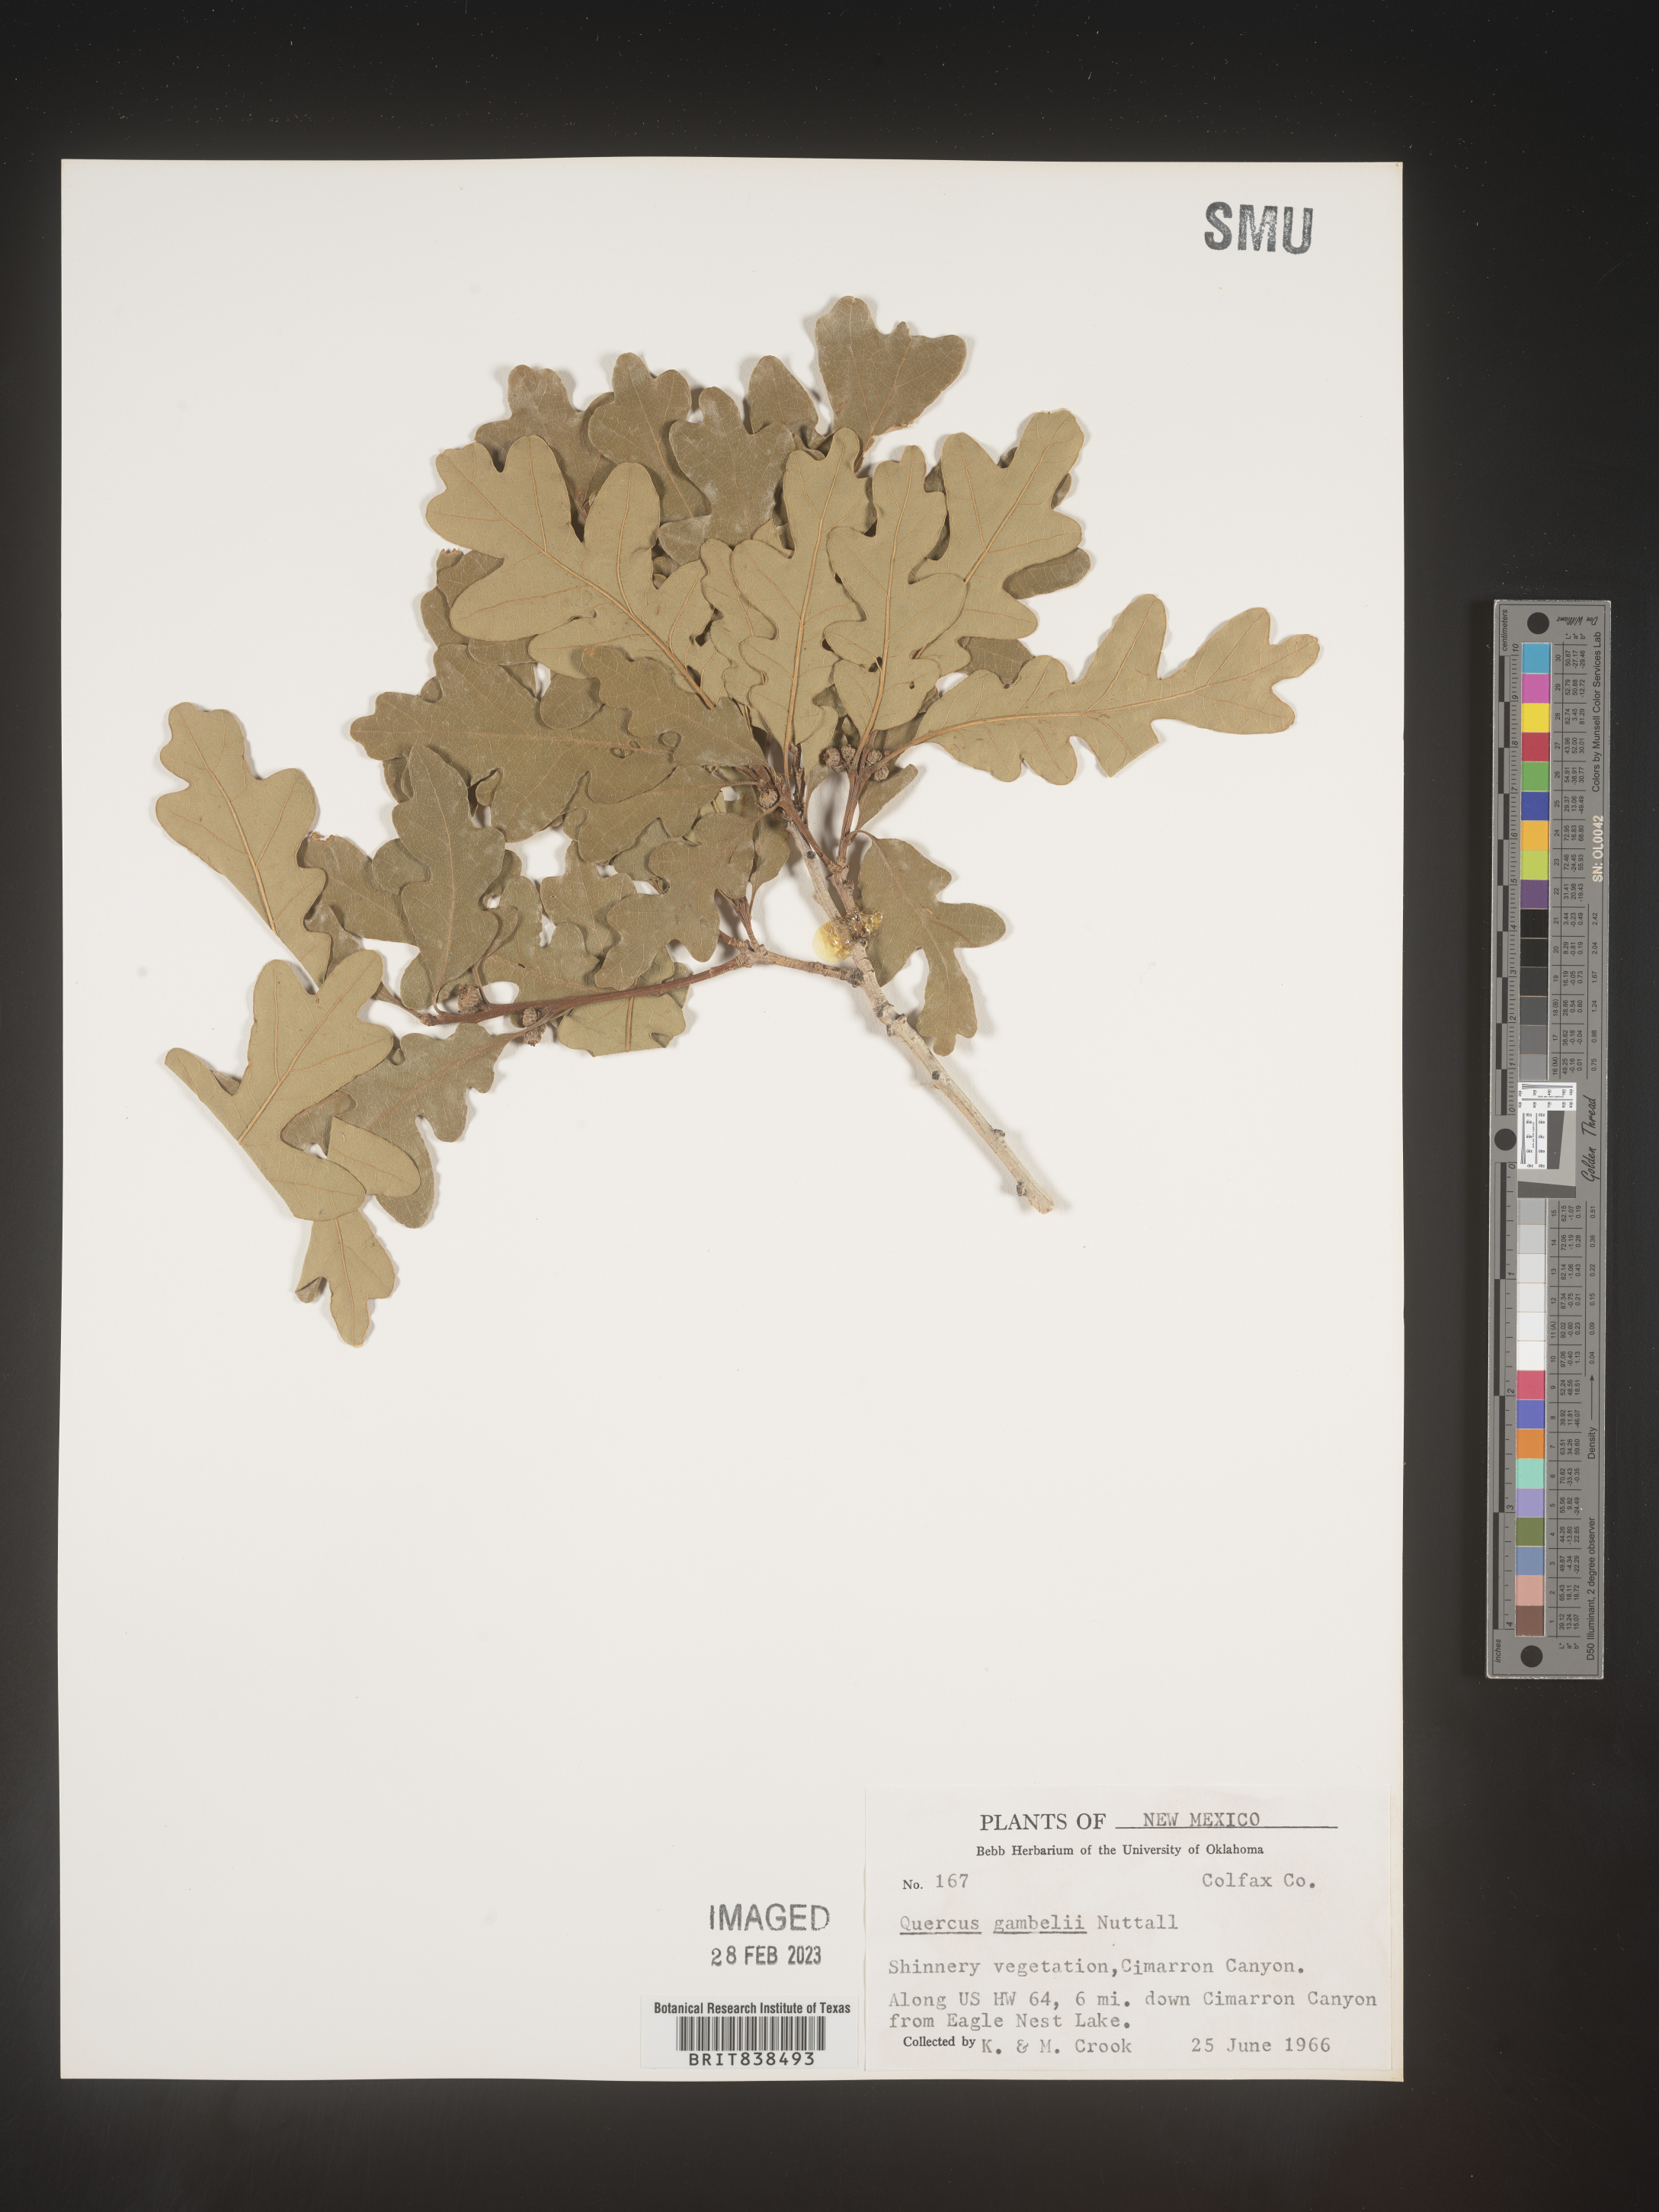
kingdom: Plantae
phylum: Tracheophyta
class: Magnoliopsida
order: Fagales
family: Fagaceae
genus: Quercus
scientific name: Quercus gambelii
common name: Gambel oak
